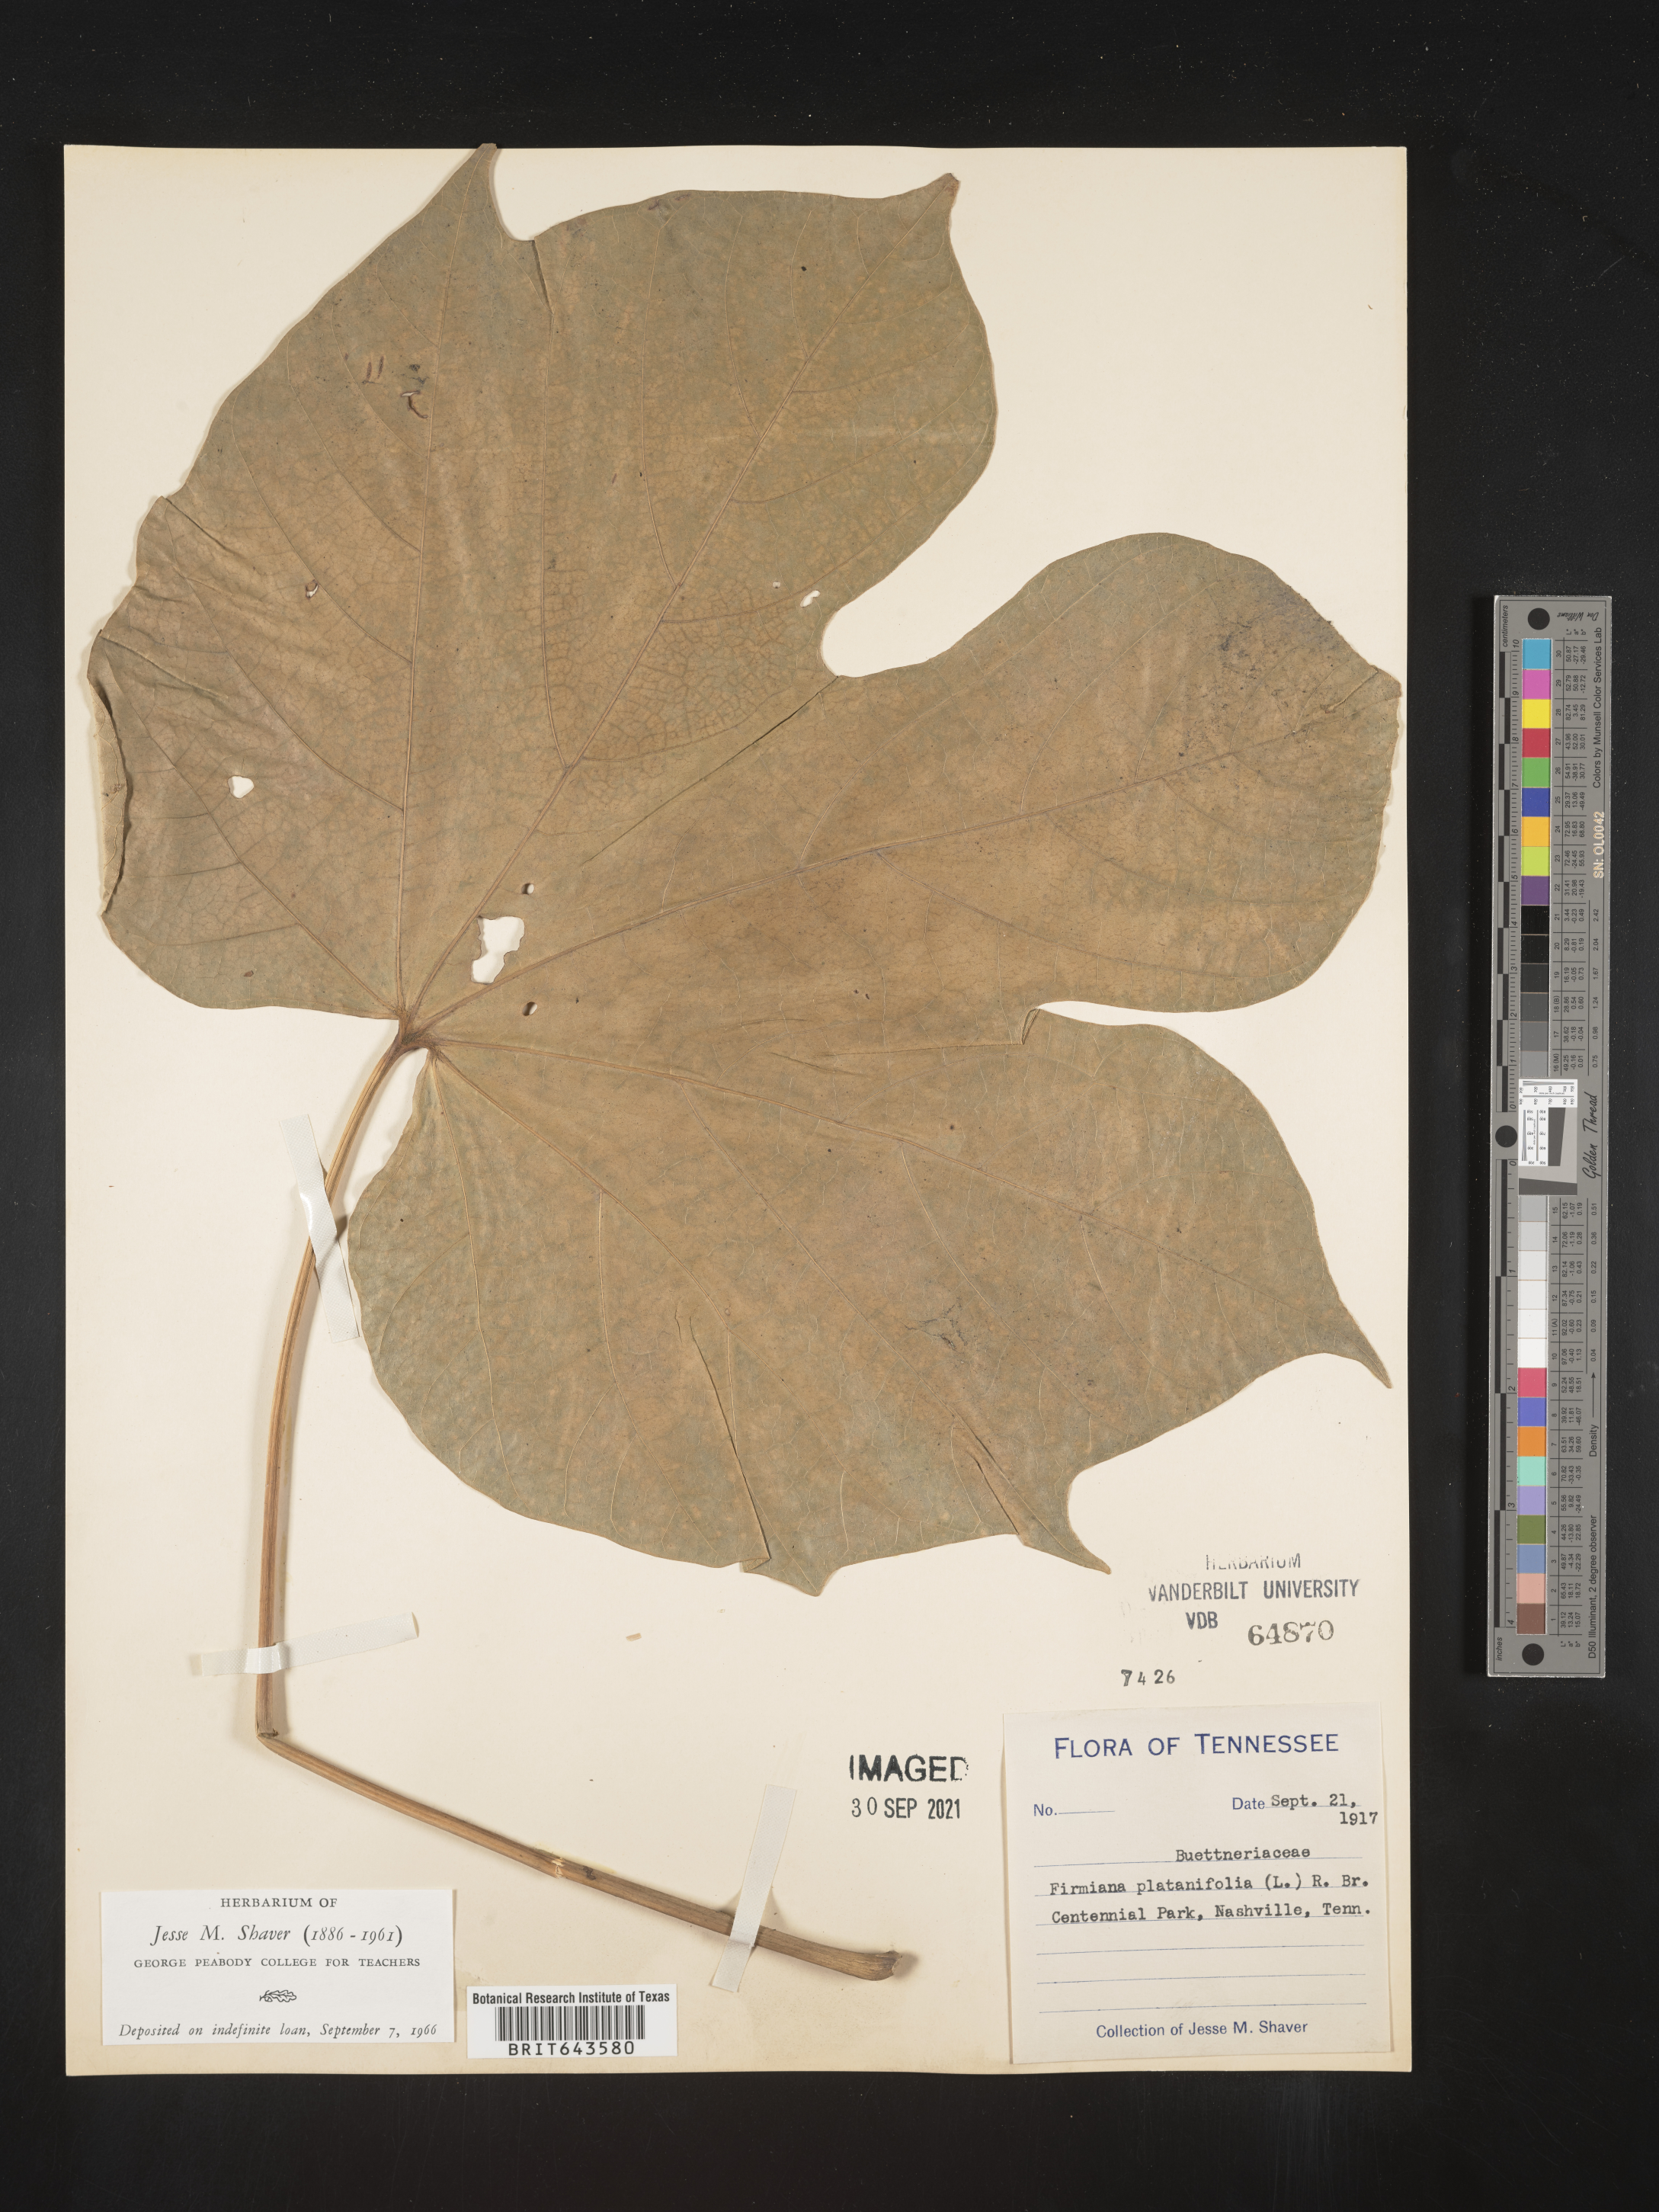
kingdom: Plantae
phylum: Tracheophyta
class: Magnoliopsida
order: Malvales
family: Malvaceae
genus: Firmiana
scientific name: Firmiana
